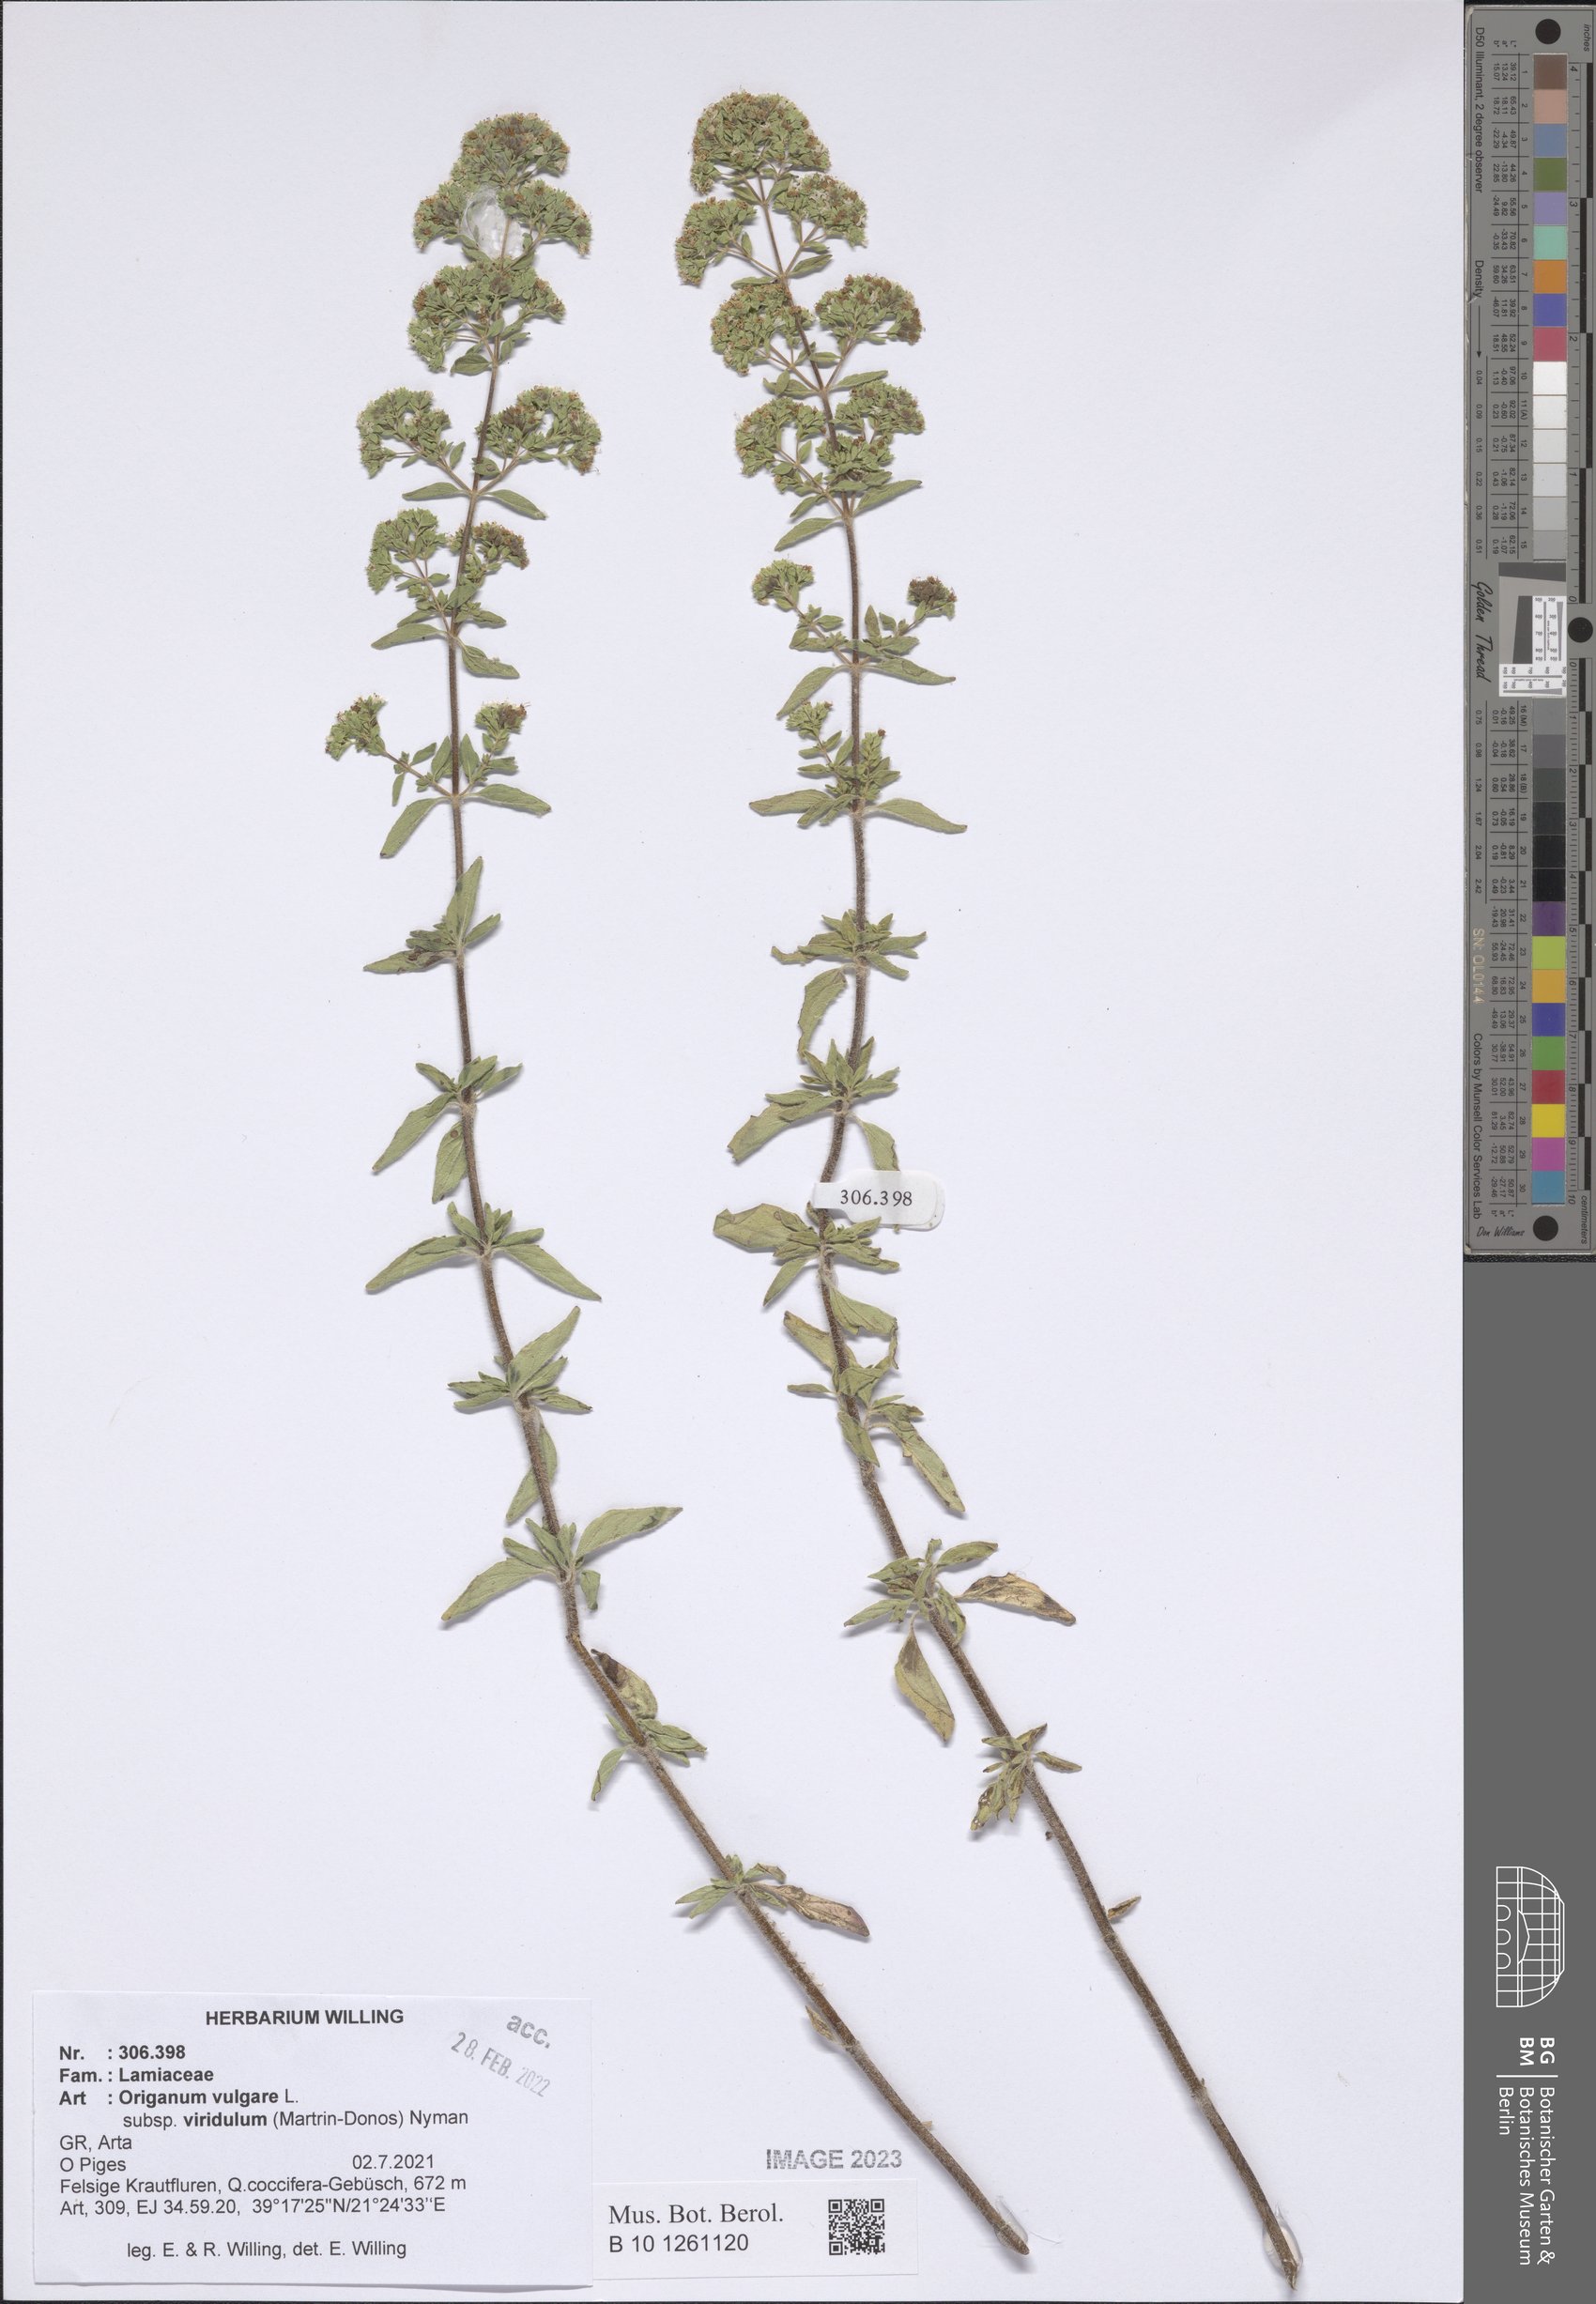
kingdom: Plantae
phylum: Tracheophyta
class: Magnoliopsida
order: Lamiales
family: Lamiaceae
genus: Origanum
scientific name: Origanum vulgare
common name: Wild marjoram
